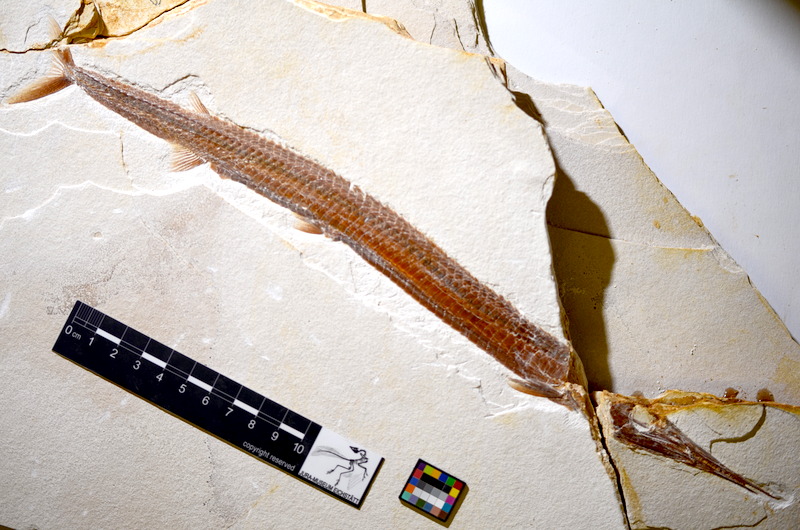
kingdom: Animalia
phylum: Chordata
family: Aspidorhynchidae
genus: Belonostomus
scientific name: Belonostomus kochii
